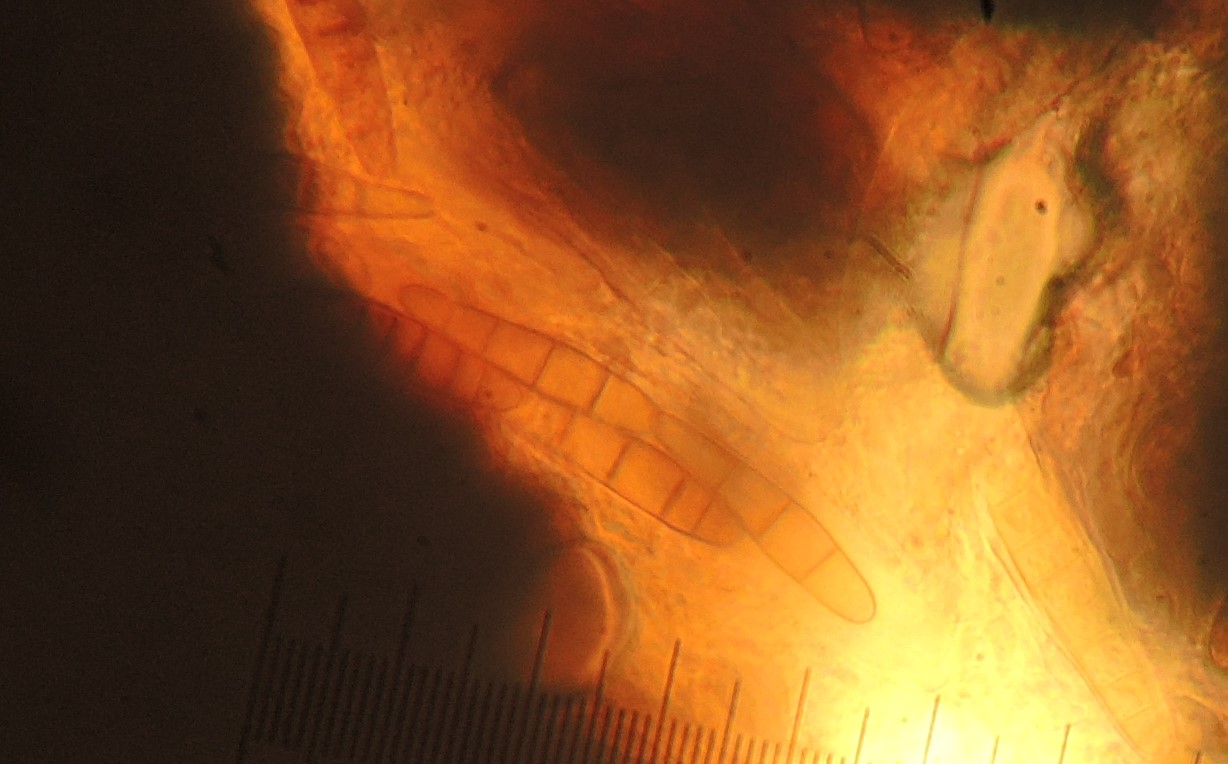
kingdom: Fungi
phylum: Ascomycota
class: Dothideomycetes
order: Mytilinidiales
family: Mytilinidiaceae
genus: Mytilinidion
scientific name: Mytilinidion rhenanum
